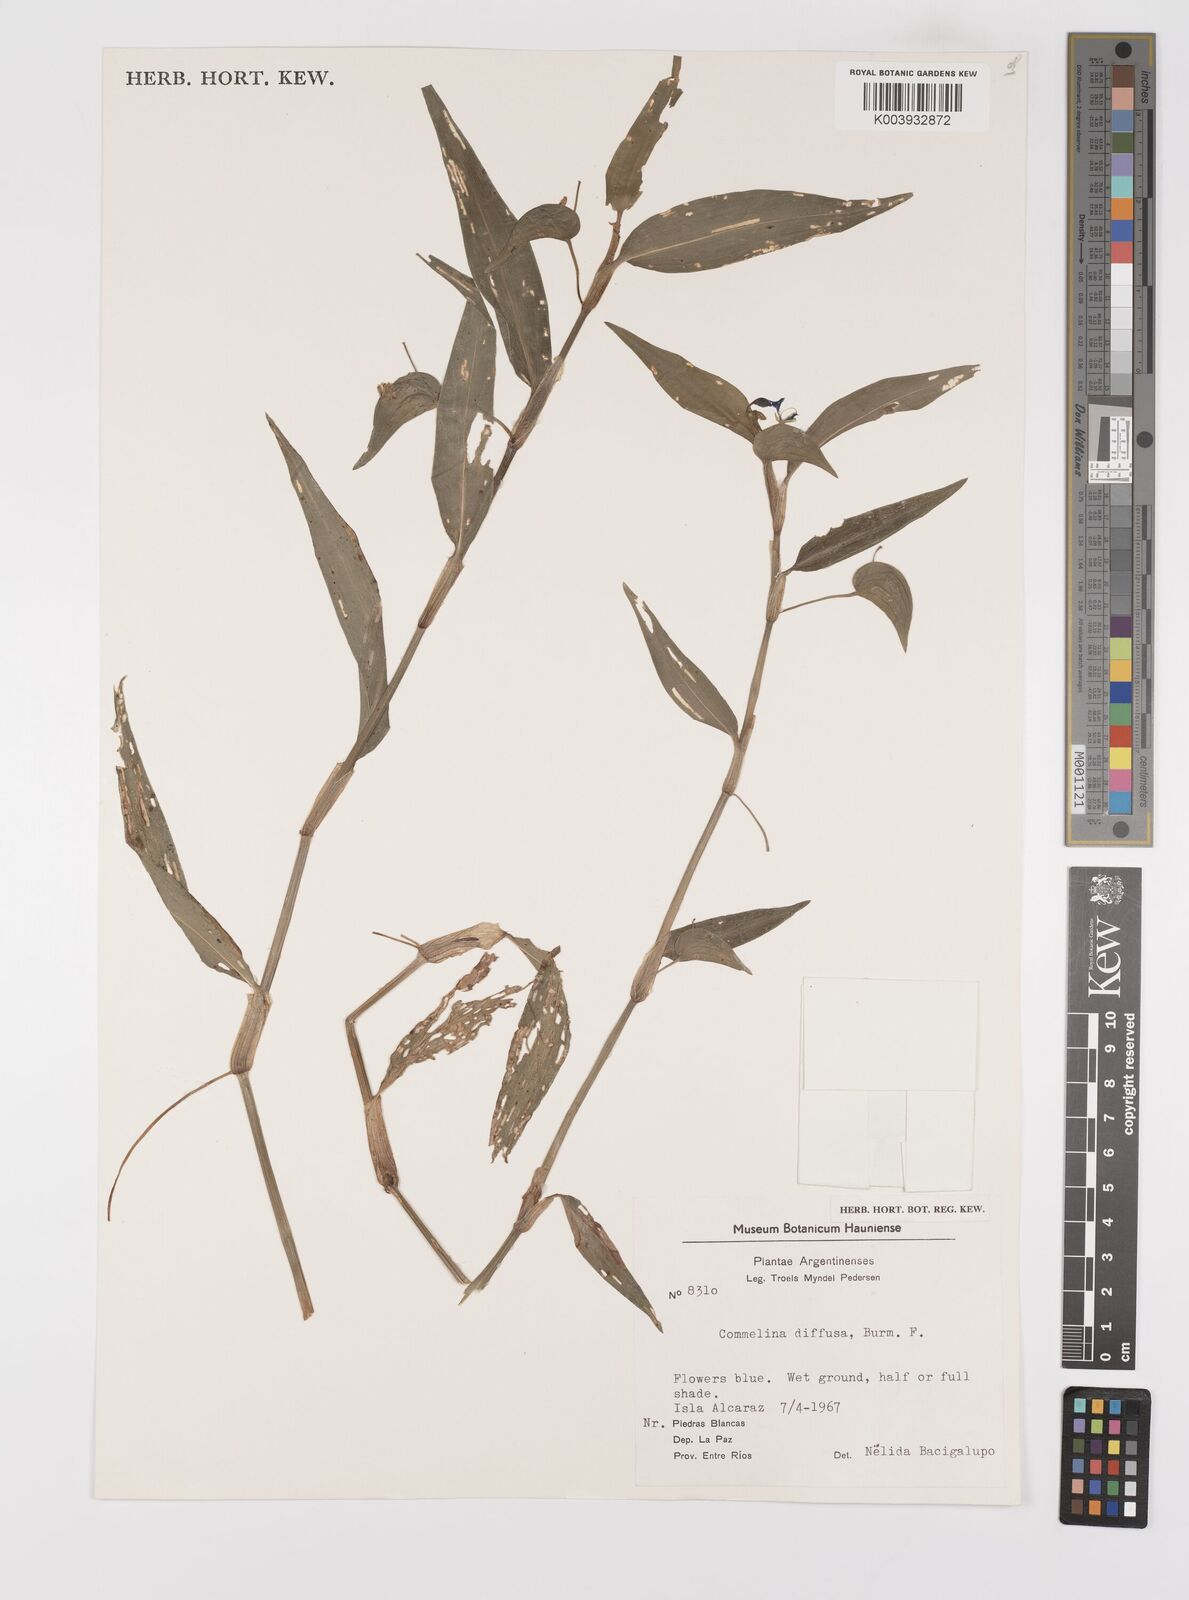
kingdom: Plantae
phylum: Tracheophyta
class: Liliopsida
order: Commelinales
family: Commelinaceae
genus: Commelina
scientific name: Commelina diffusa
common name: Climbing dayflower
